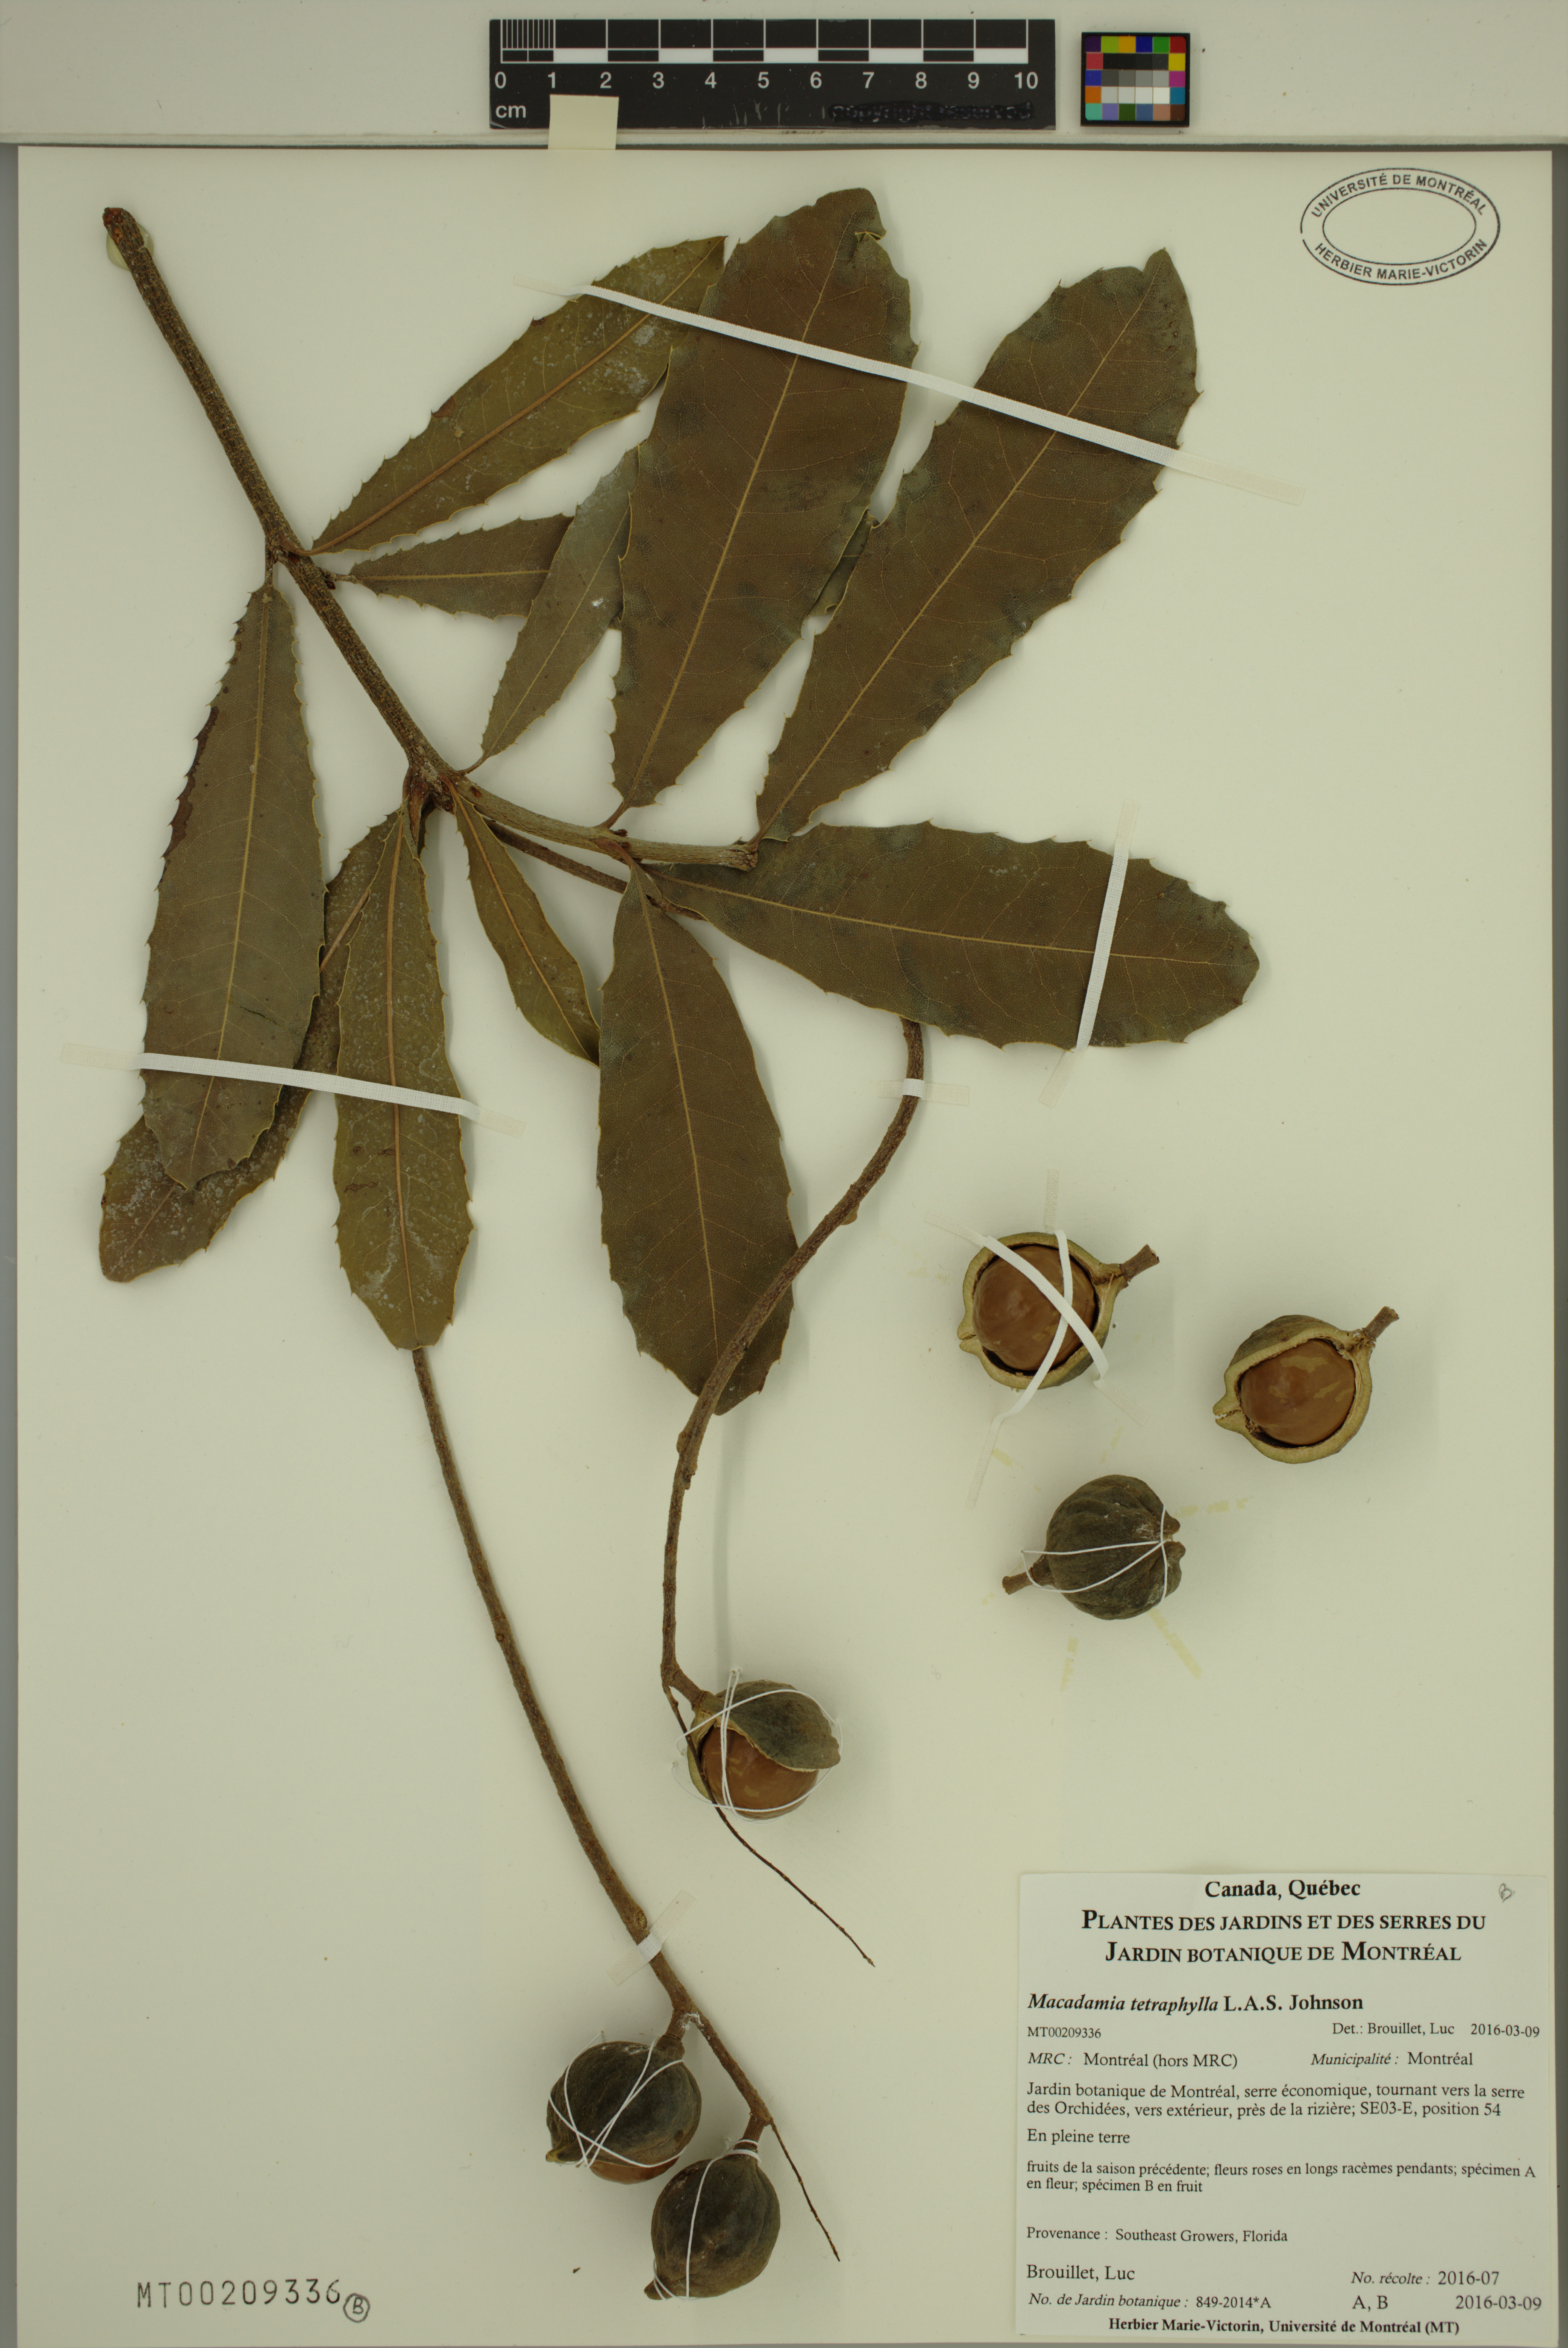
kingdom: Plantae
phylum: Tracheophyta
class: Magnoliopsida
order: Proteales
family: Proteaceae
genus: Macadamia
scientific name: Macadamia tetraphylla
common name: Macadamia nut
